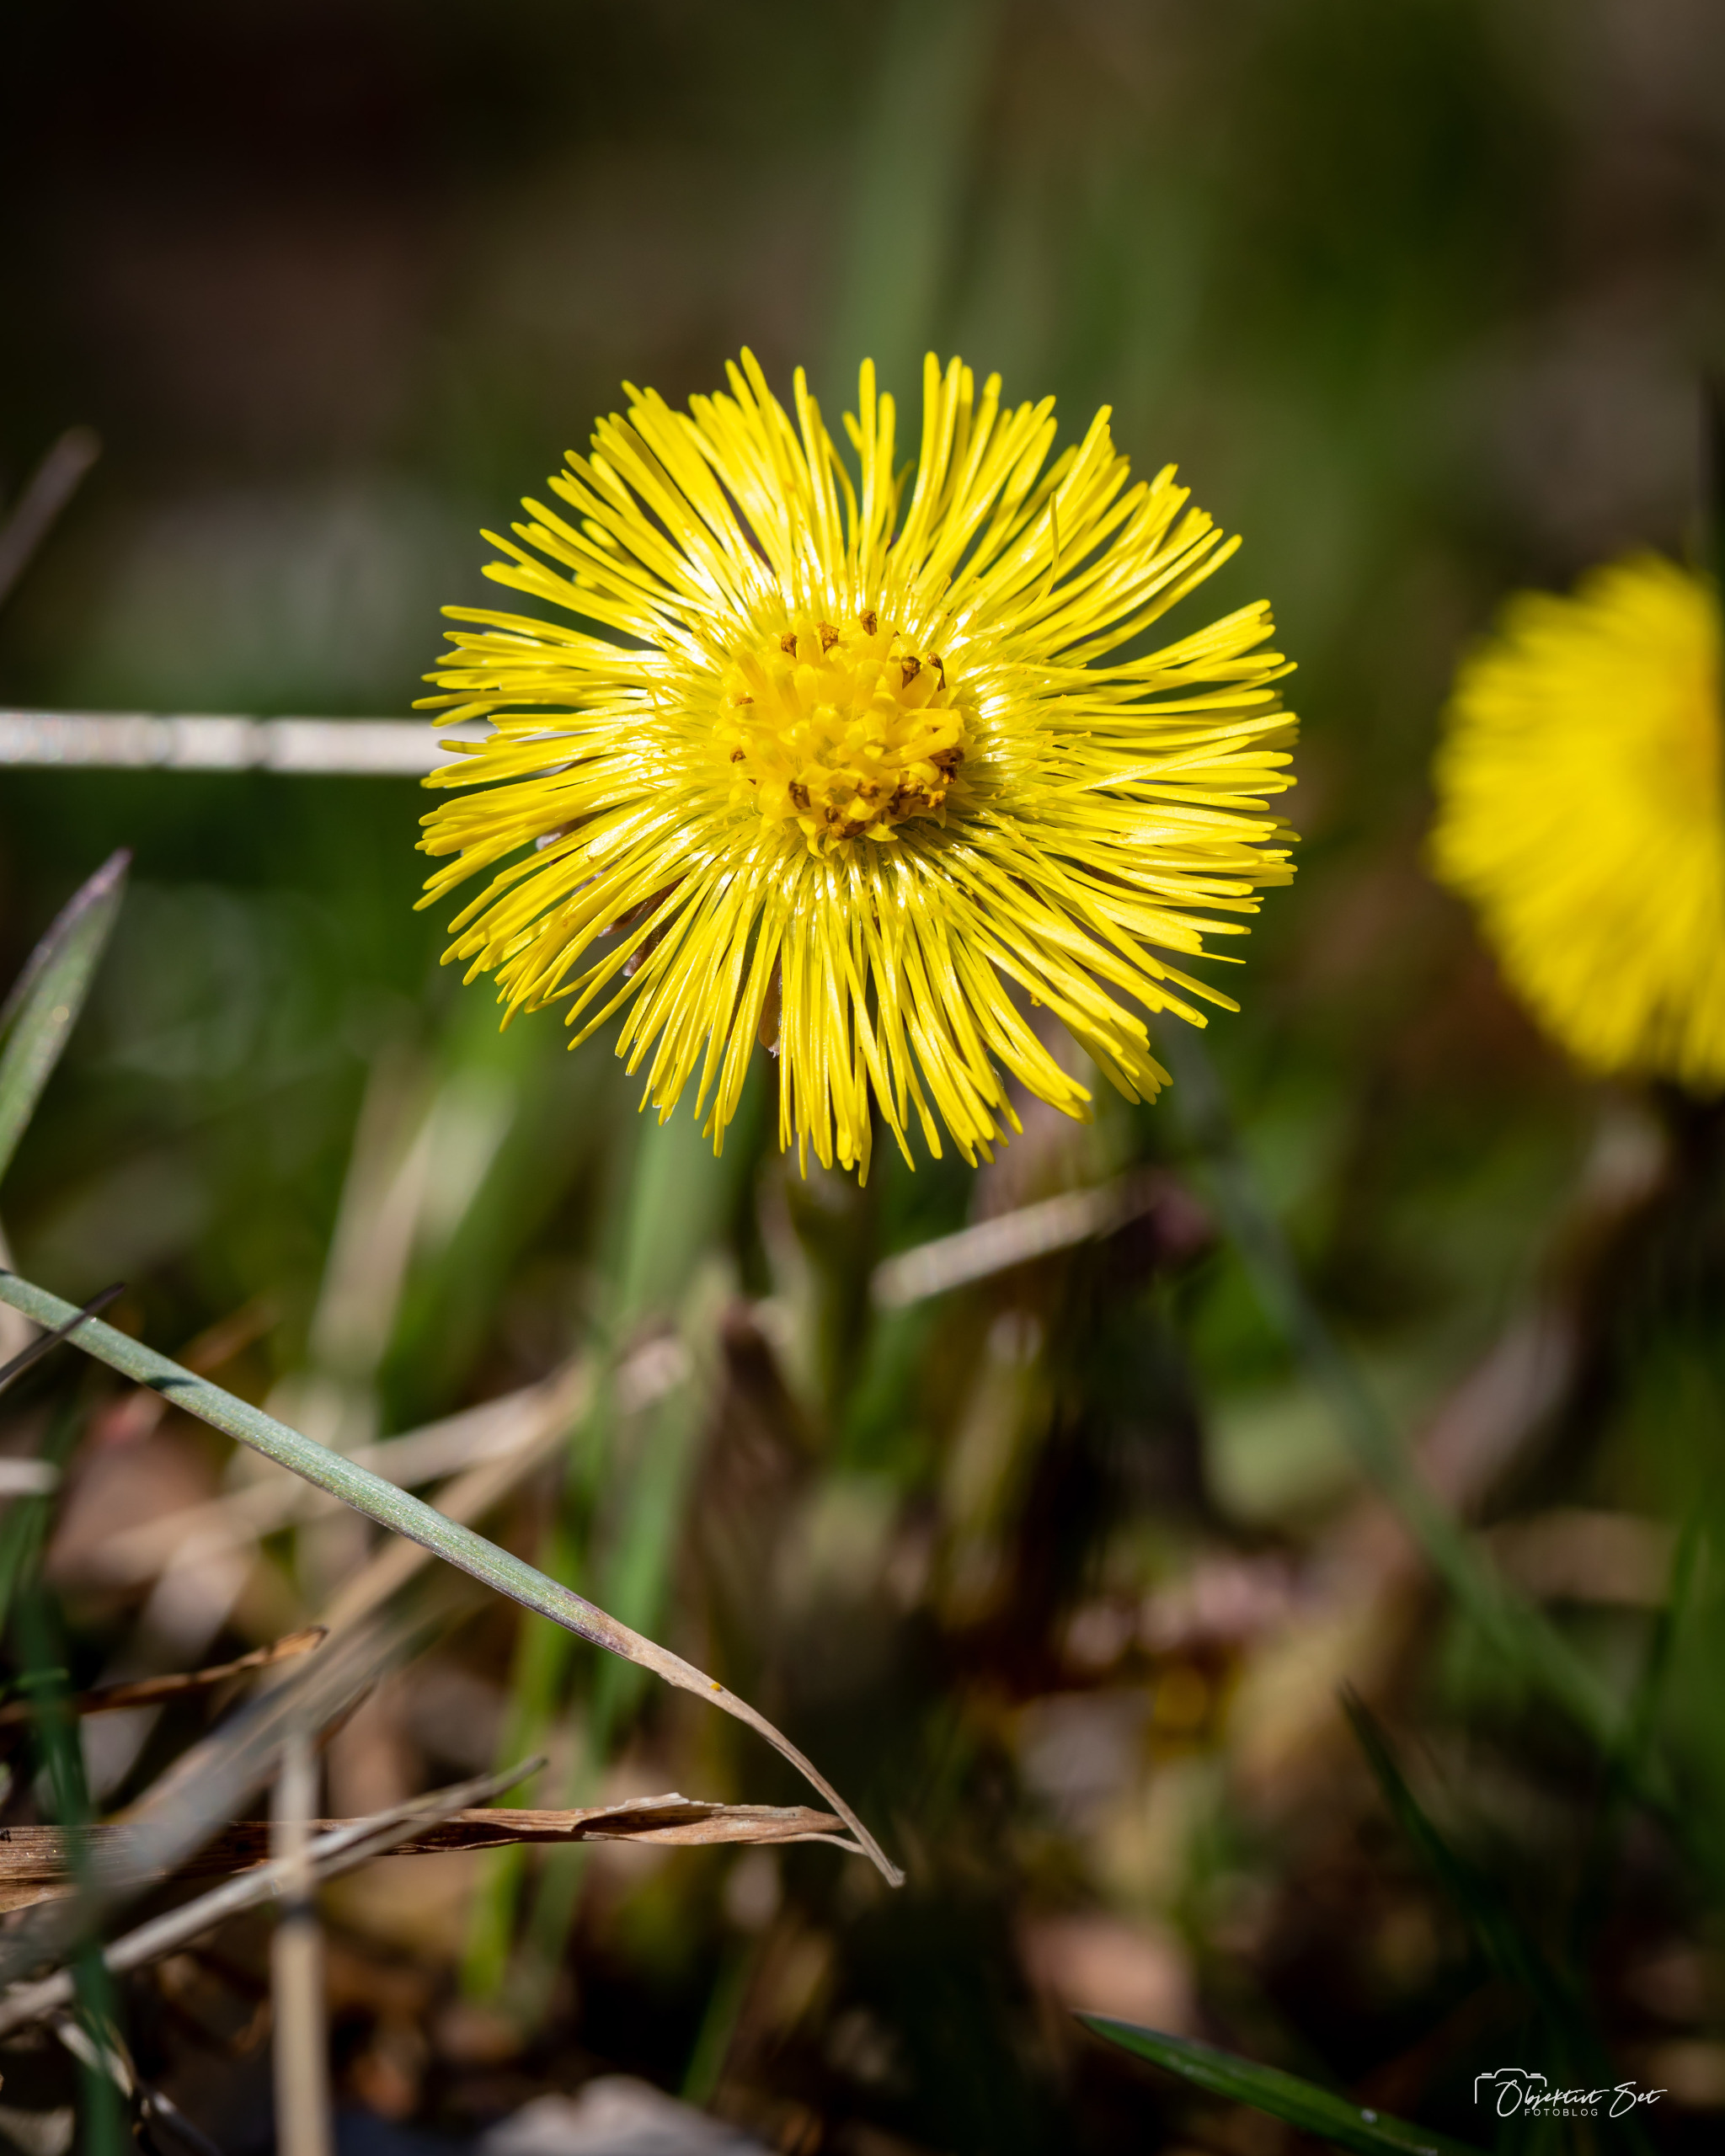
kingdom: Plantae
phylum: Tracheophyta
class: Magnoliopsida
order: Asterales
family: Asteraceae
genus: Tussilago
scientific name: Tussilago farfara
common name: Følfod
